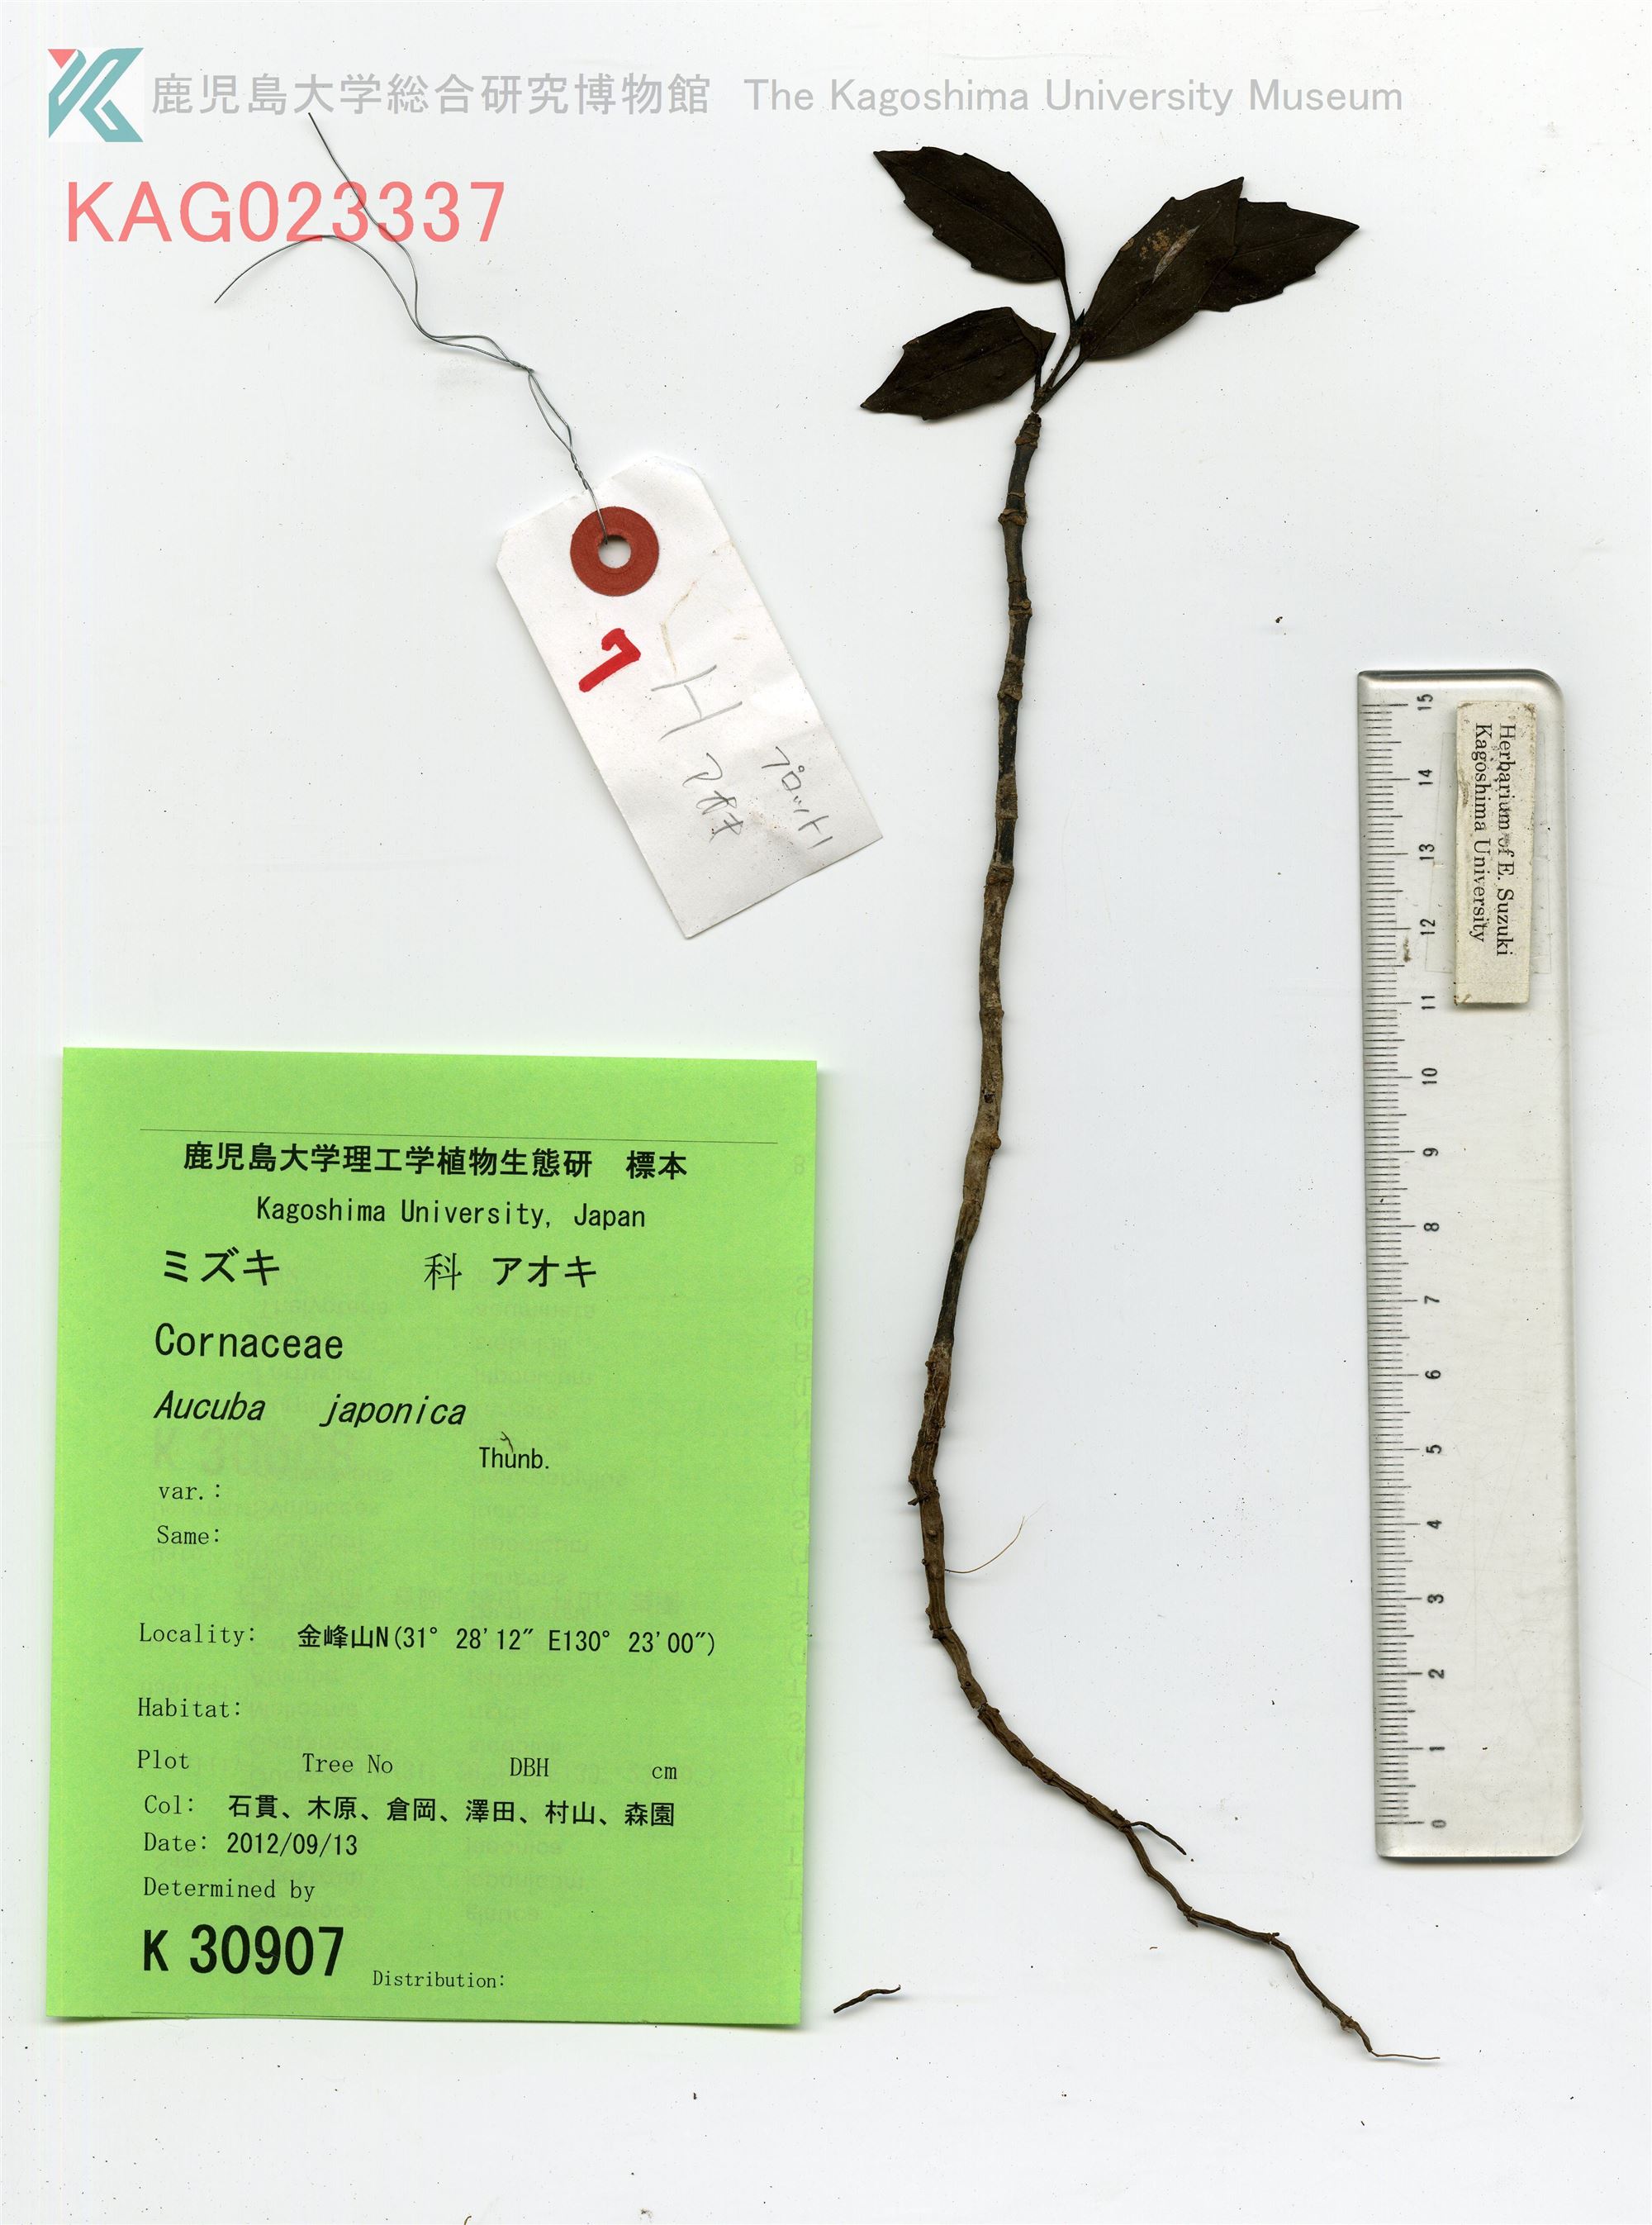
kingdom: Plantae
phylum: Tracheophyta
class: Magnoliopsida
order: Garryales
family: Garryaceae
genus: Aucuba
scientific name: Aucuba japonica
